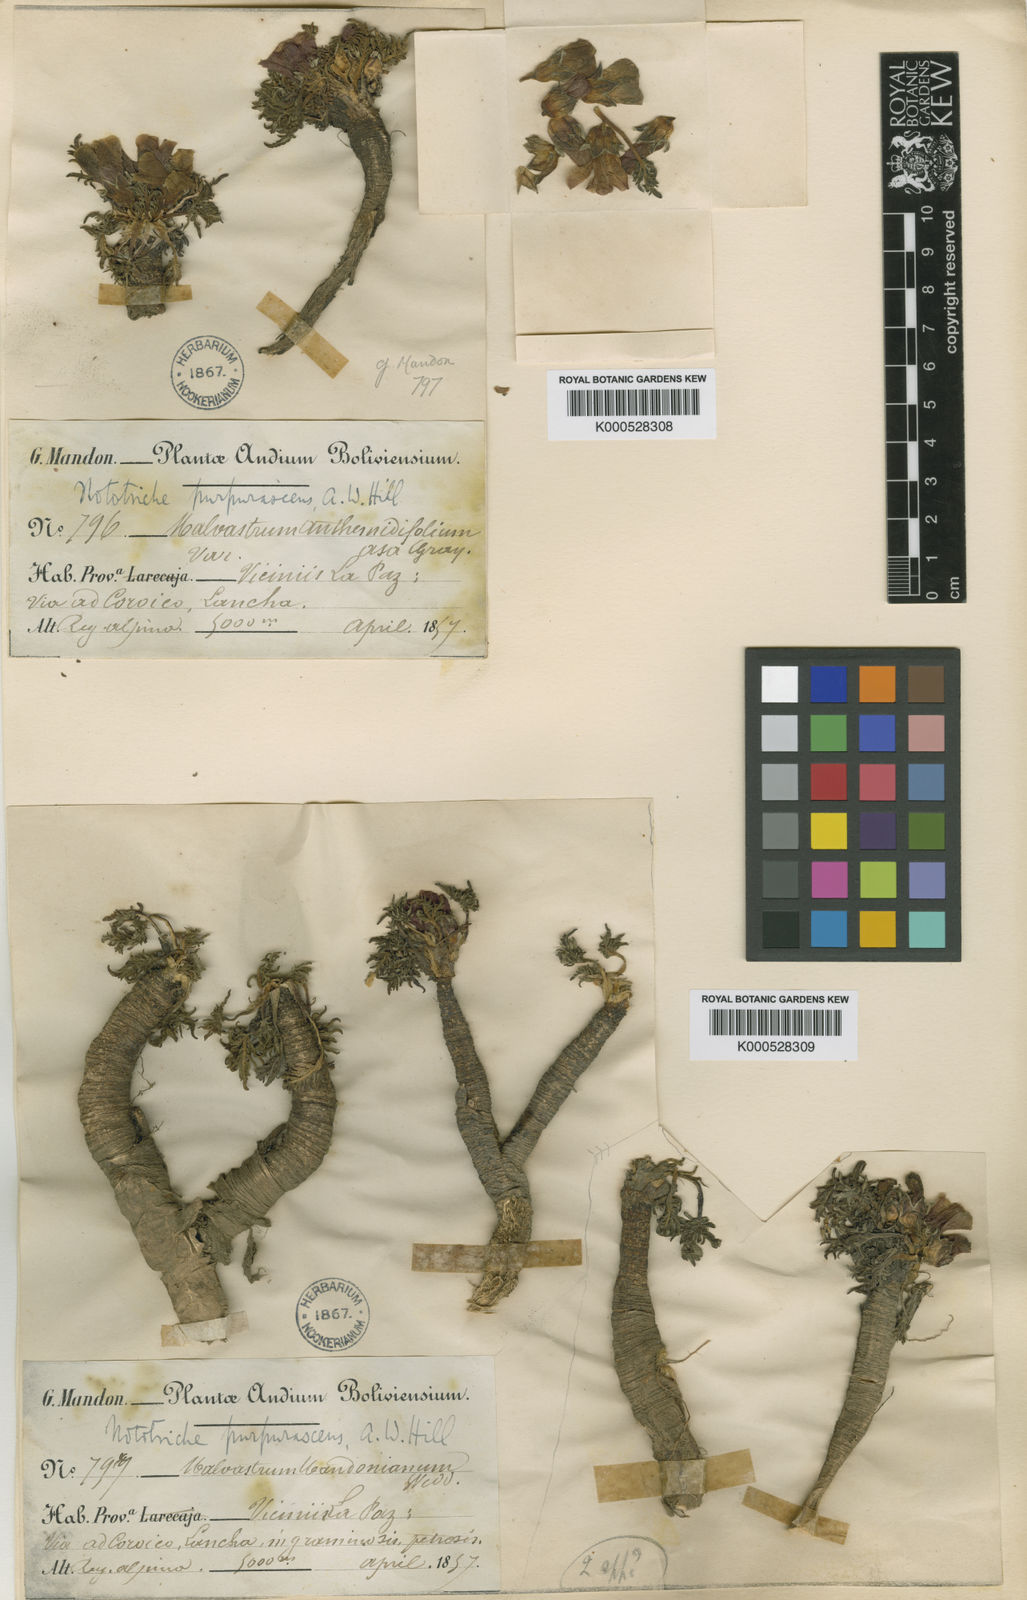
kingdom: Plantae
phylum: Tracheophyta
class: Magnoliopsida
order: Malvales
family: Malvaceae
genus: Nototriche
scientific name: Nototriche purpurascens
